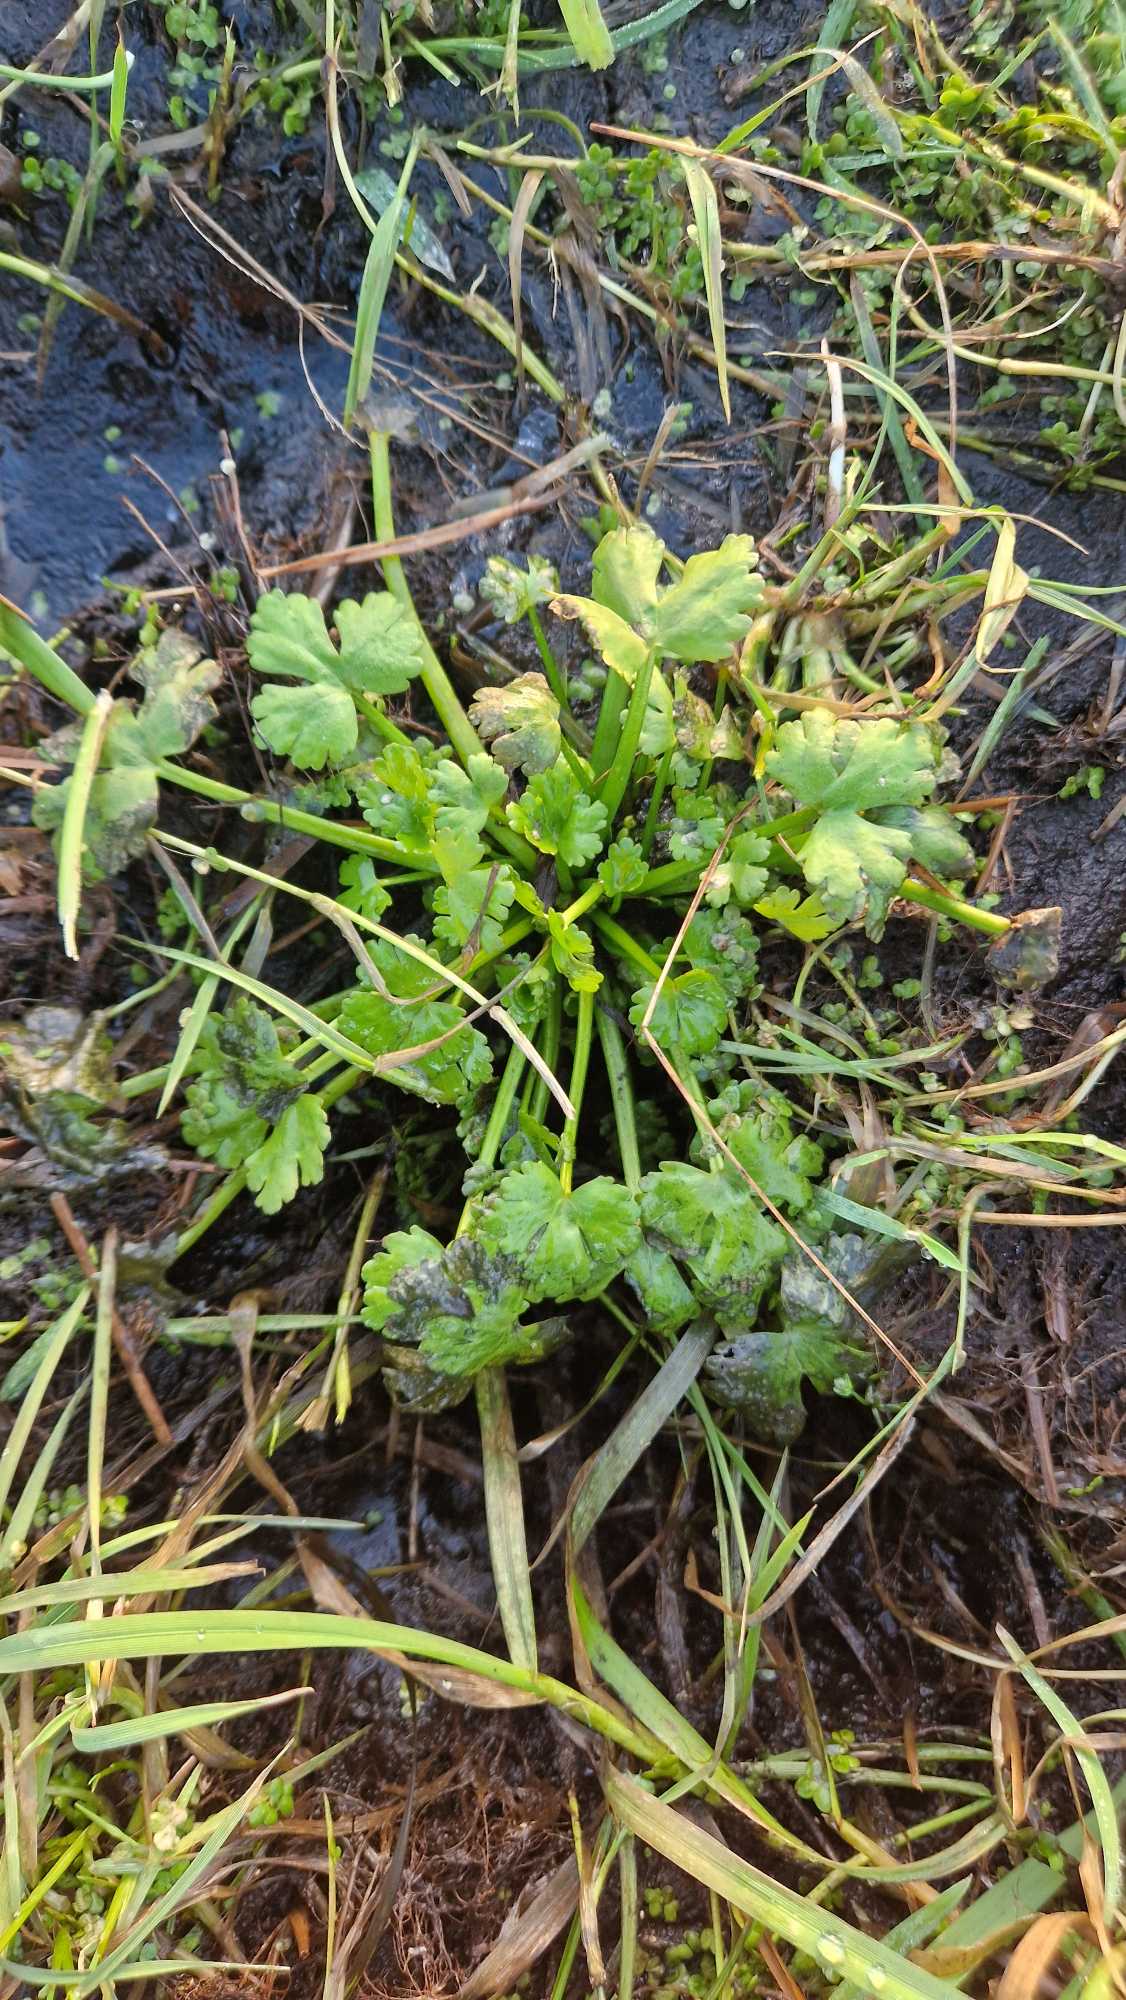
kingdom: Plantae
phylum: Tracheophyta
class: Magnoliopsida
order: Ranunculales
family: Ranunculaceae
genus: Ranunculus
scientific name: Ranunculus sceleratus
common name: Tigger-ranunkel
